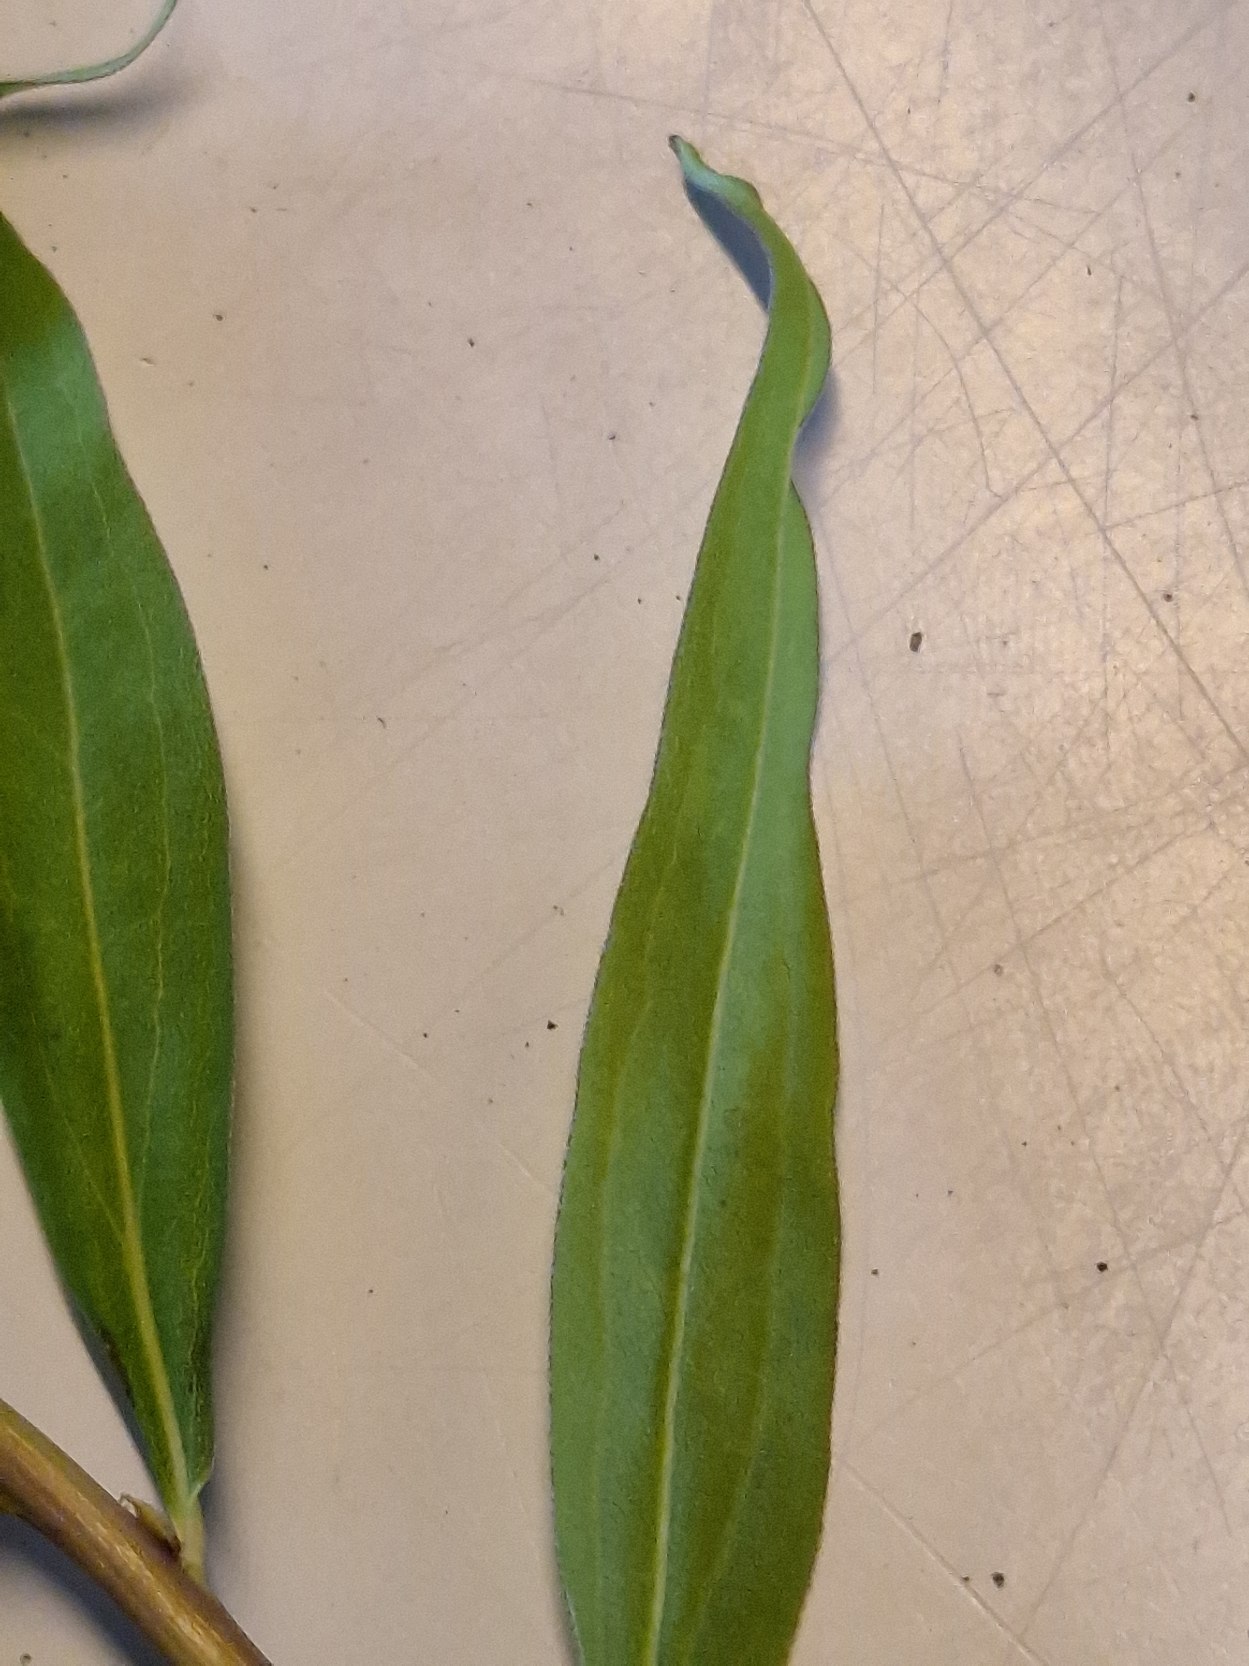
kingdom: Plantae
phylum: Tracheophyta
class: Magnoliopsida
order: Asterales
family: Asteraceae
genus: Solidago
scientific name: Solidago gigantea
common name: Sildig gyldenris
